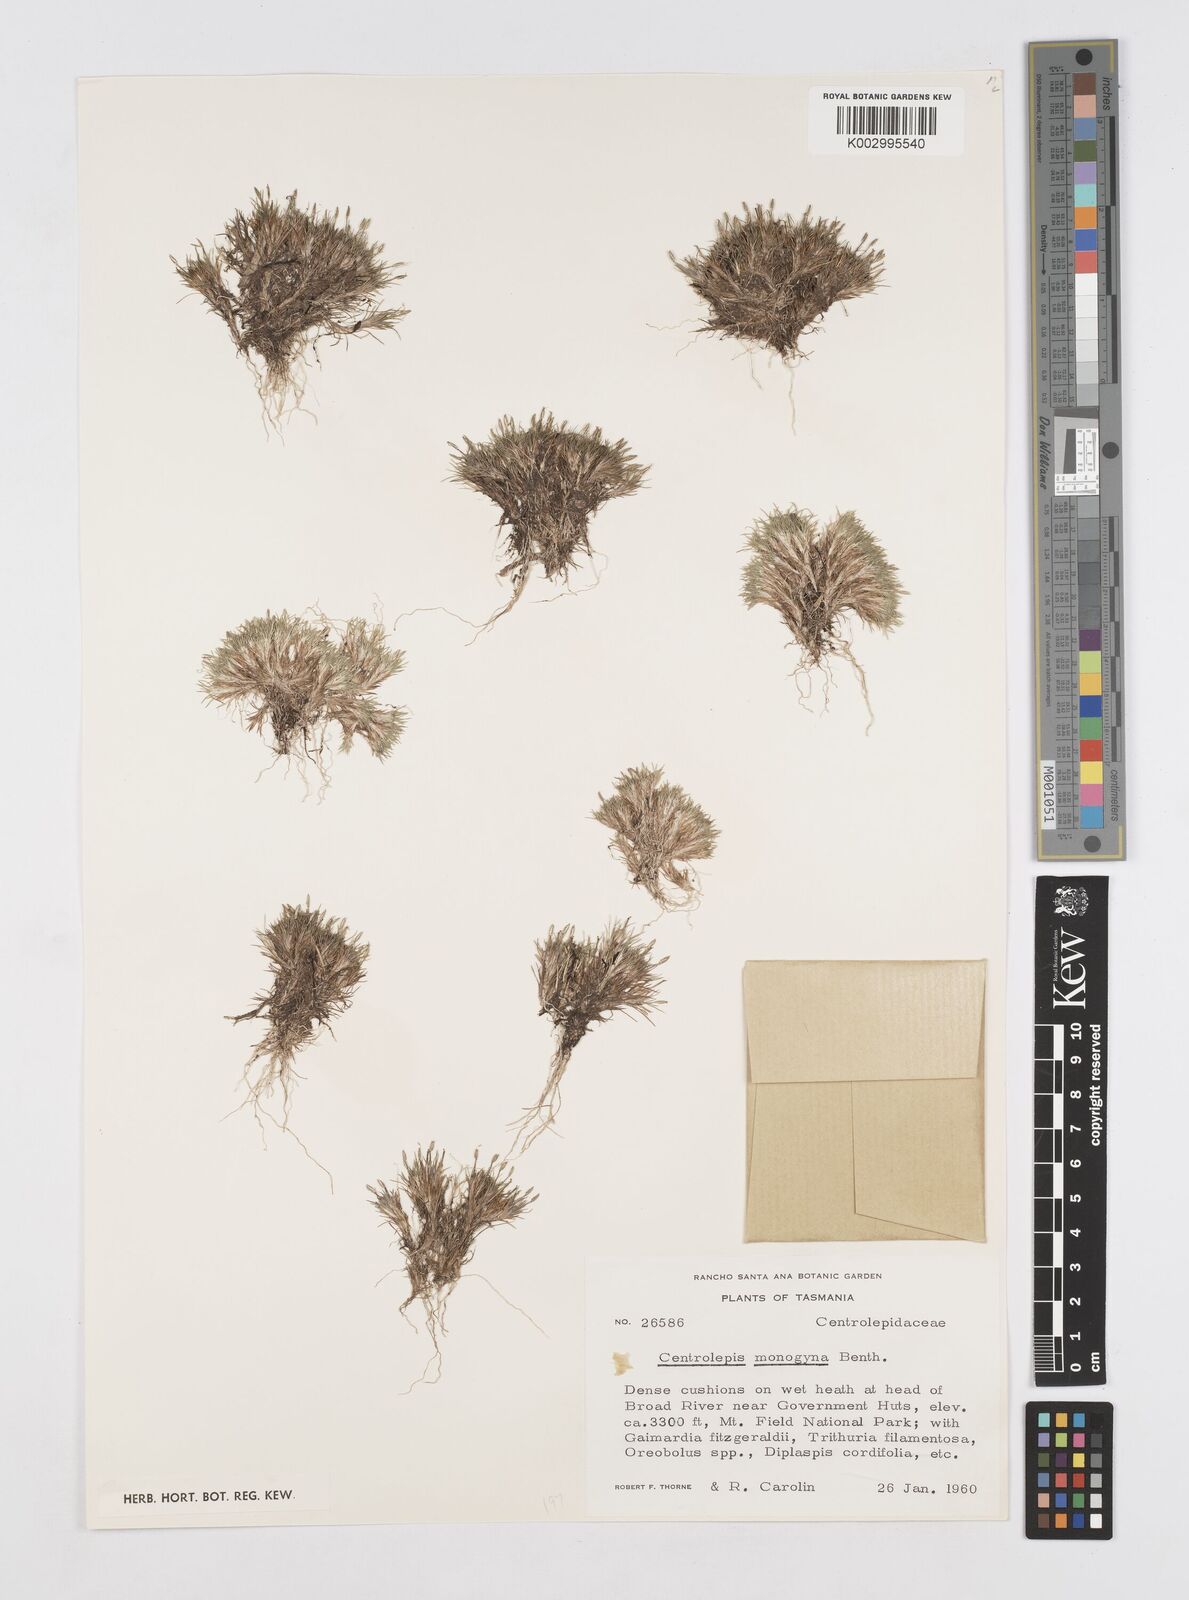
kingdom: Plantae
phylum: Tracheophyta
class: Liliopsida
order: Poales
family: Restionaceae
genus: Centrolepis
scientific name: Centrolepis monogyna
